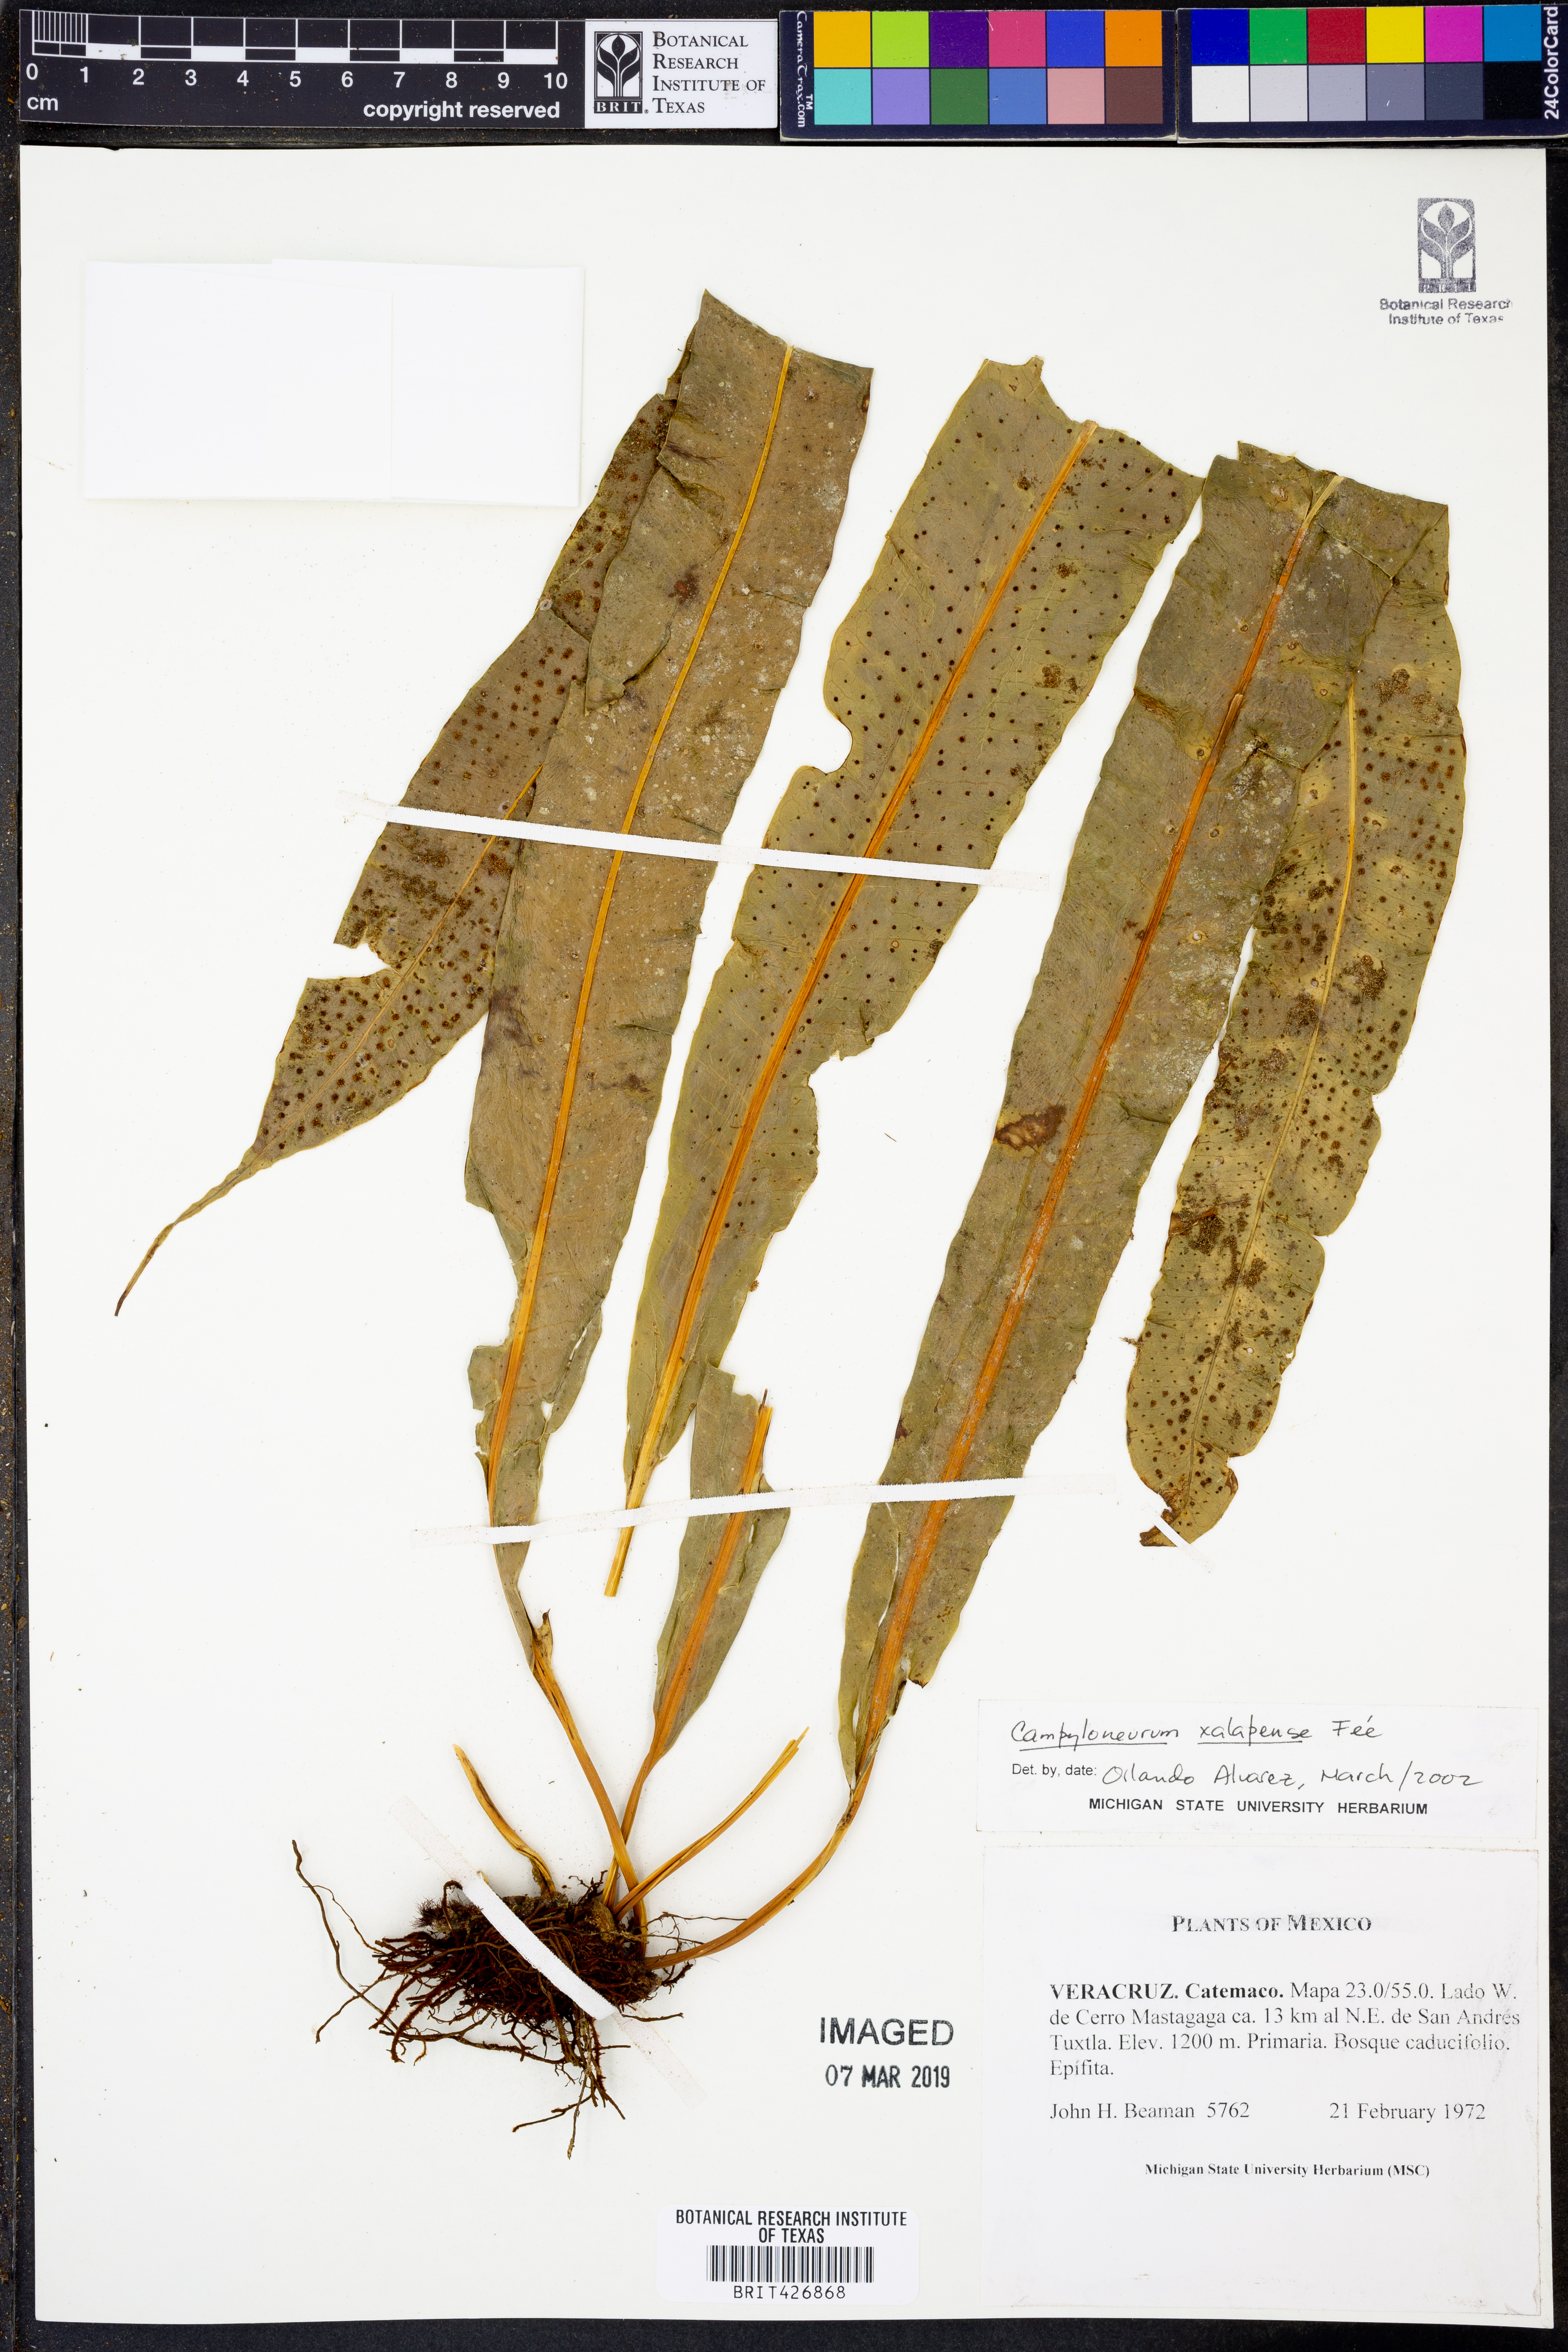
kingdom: Plantae
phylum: Tracheophyta
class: Polypodiopsida
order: Polypodiales
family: Polypodiaceae
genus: Campyloneurum
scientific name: Campyloneurum xalapense
